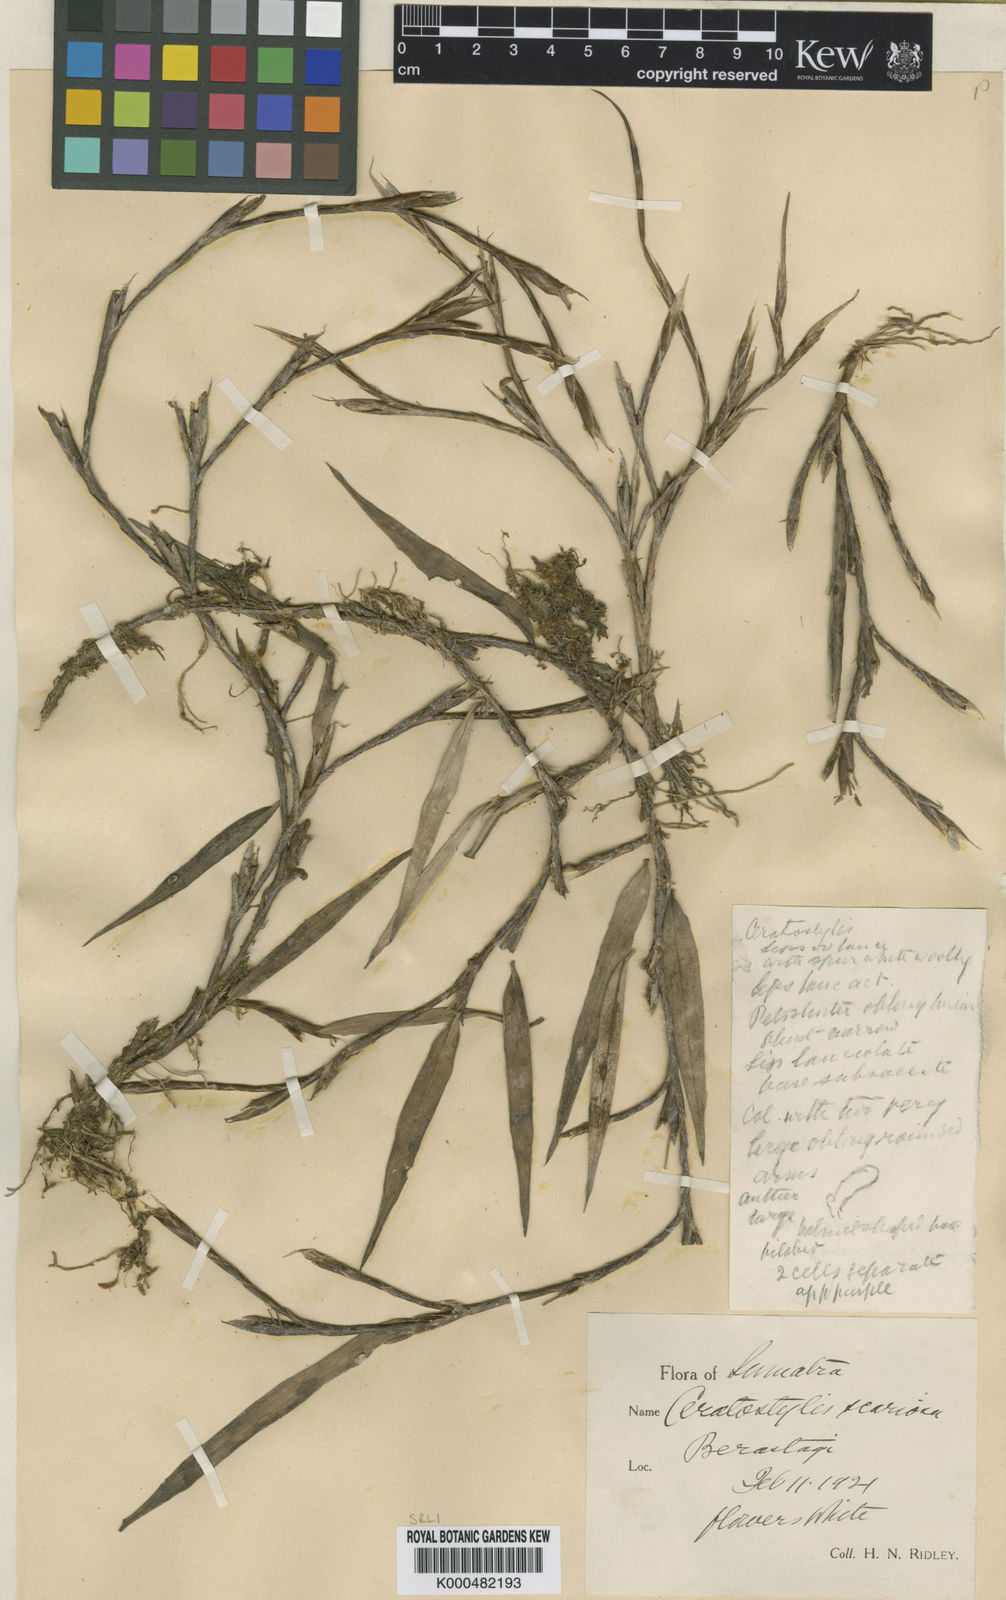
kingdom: Plantae
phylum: Tracheophyta
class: Liliopsida
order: Asparagales
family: Orchidaceae
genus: Ceratostylis
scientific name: Ceratostylis scariosa
